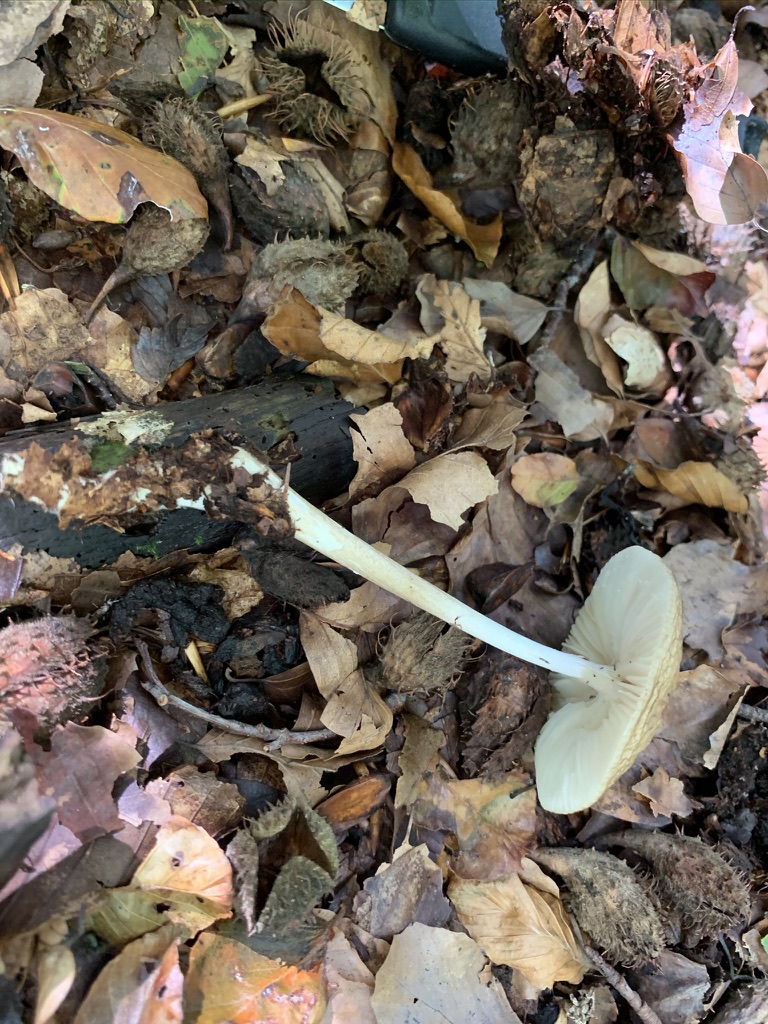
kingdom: Fungi
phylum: Basidiomycota
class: Agaricomycetes
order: Agaricales
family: Physalacriaceae
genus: Hymenopellis
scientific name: Hymenopellis radicata
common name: almindelig pælerodshat
